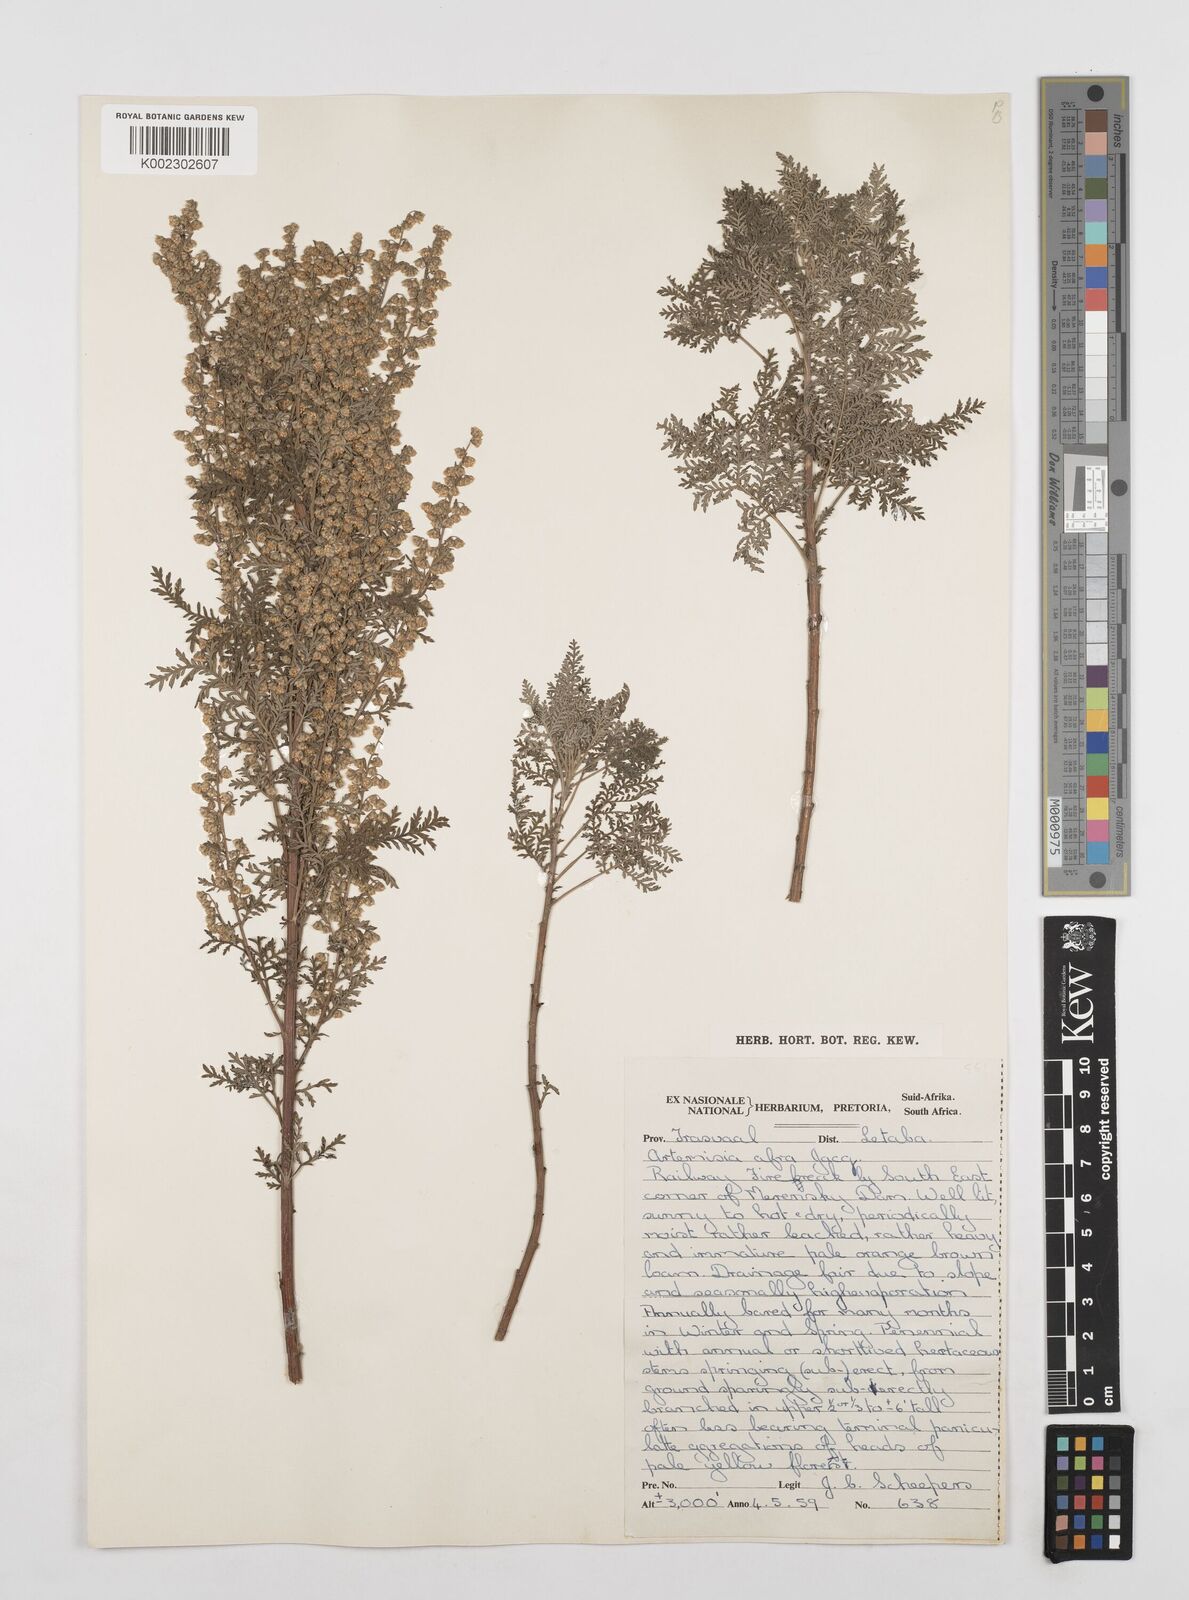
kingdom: Plantae
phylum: Tracheophyta
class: Magnoliopsida
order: Asterales
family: Asteraceae
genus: Artemisia
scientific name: Artemisia afra
